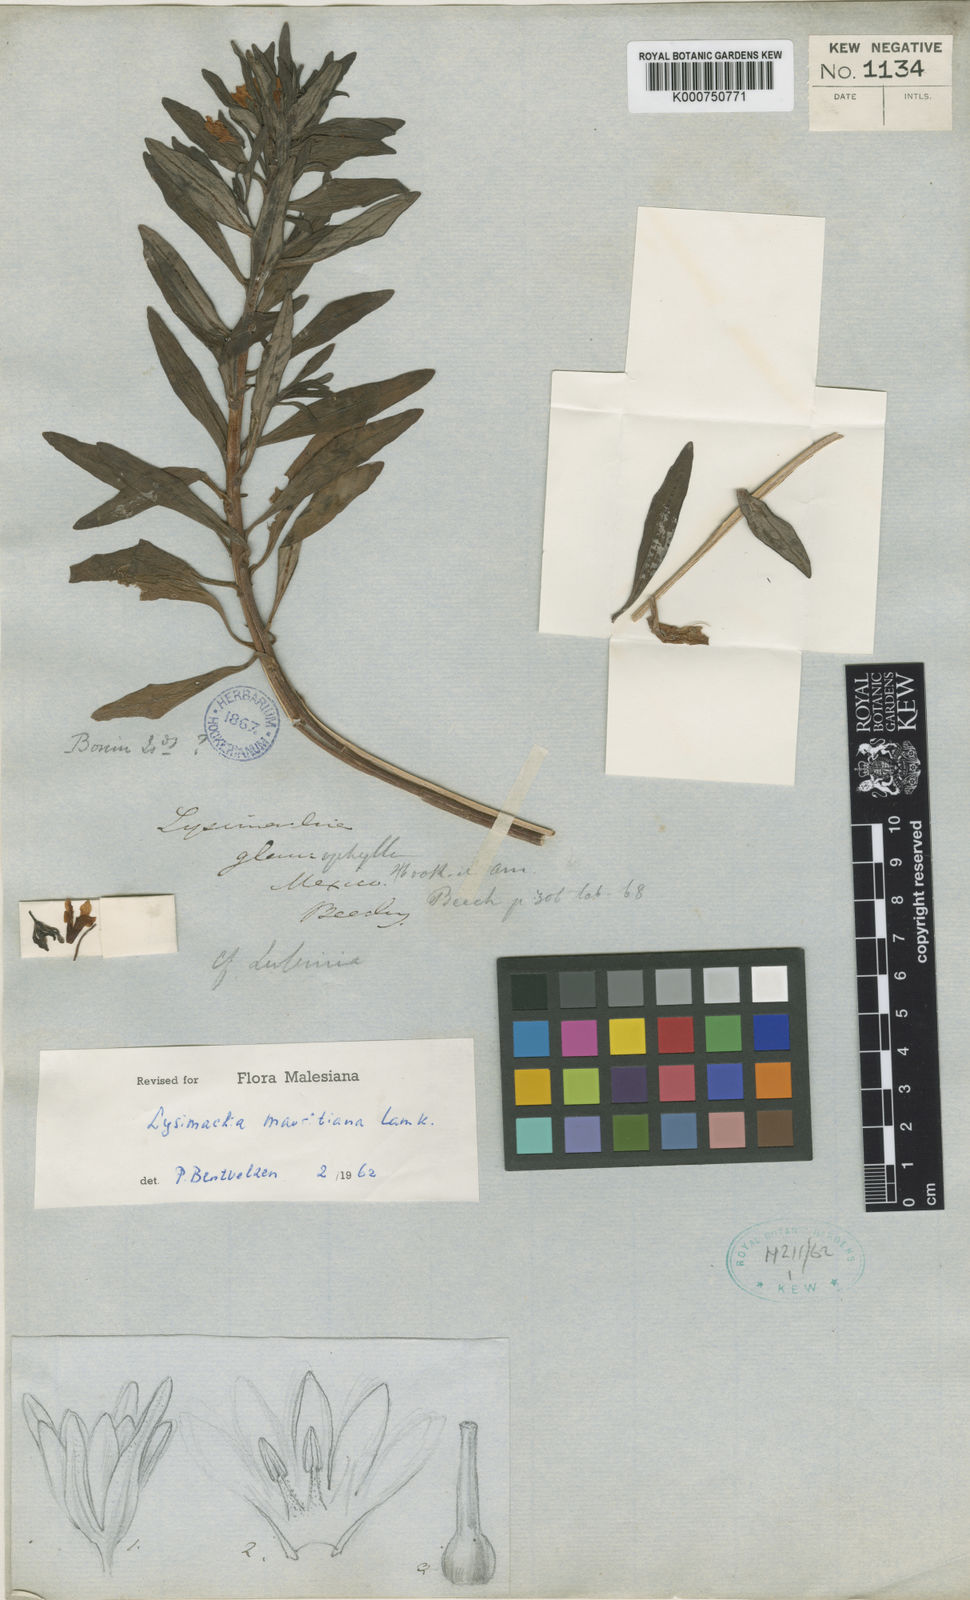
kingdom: Plantae
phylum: Tracheophyta
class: Magnoliopsida
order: Ericales
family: Primulaceae
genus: Lysimachia
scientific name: Lysimachia mauritiana
